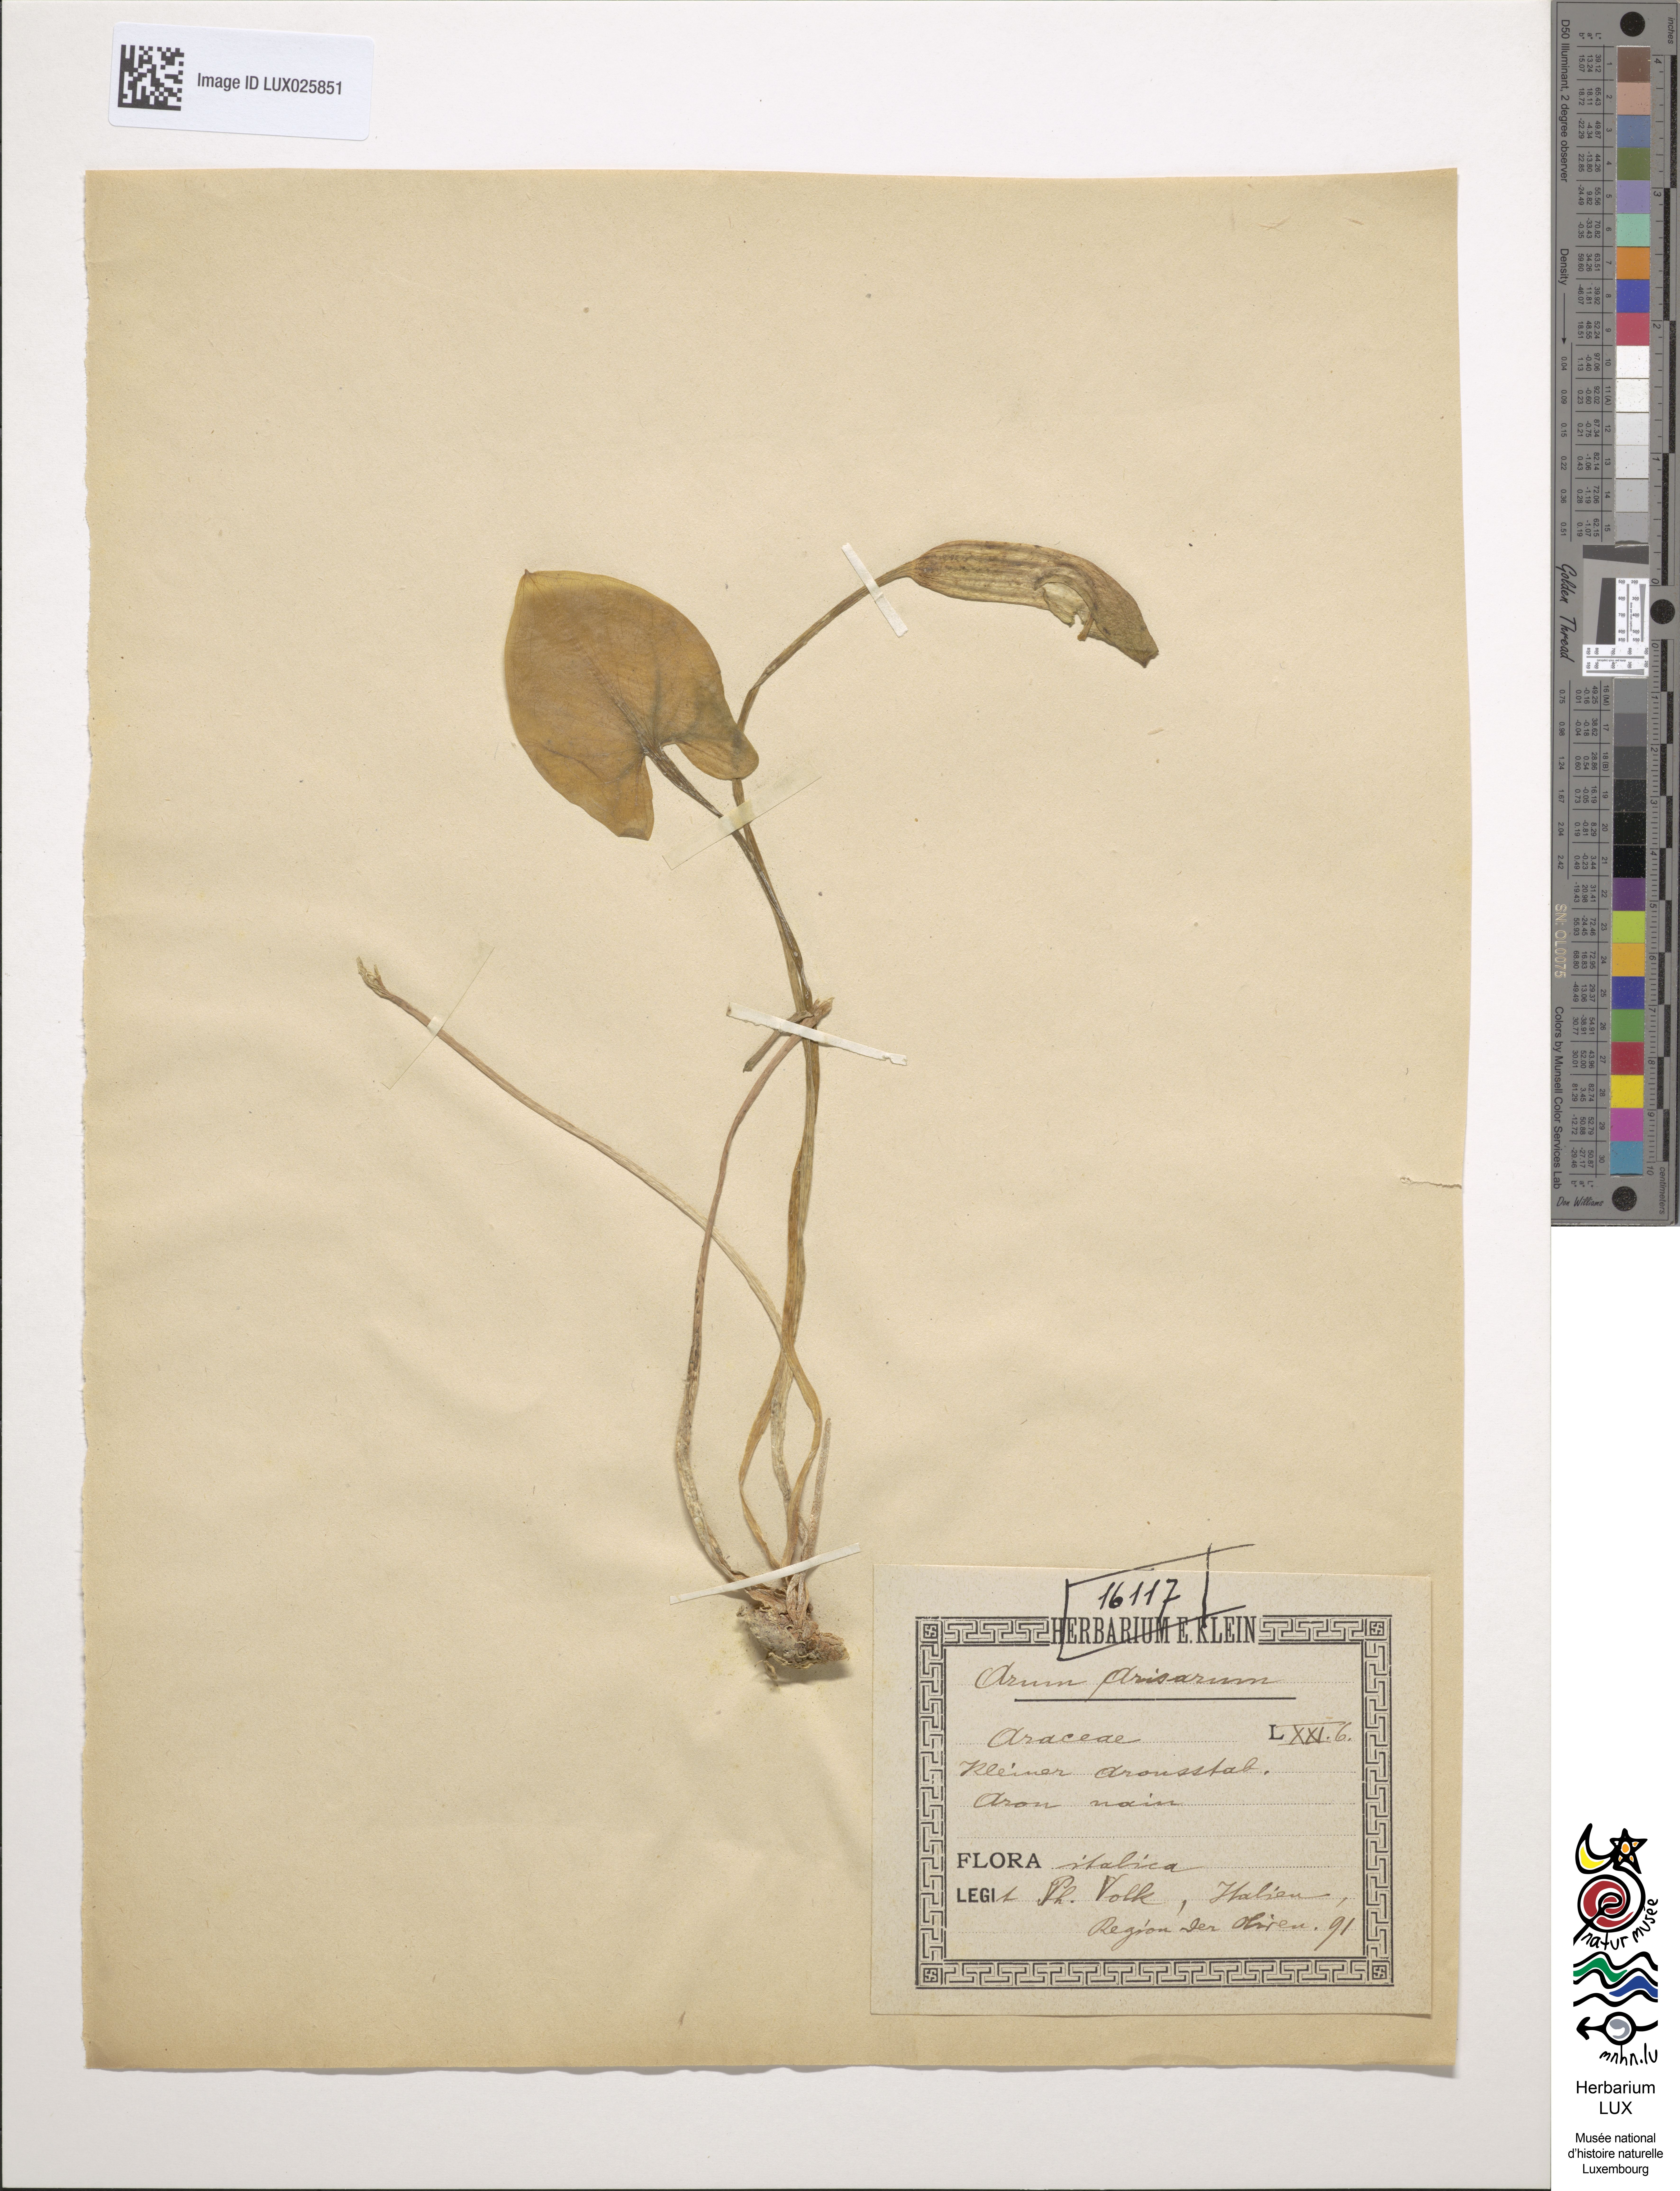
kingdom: Plantae
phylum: Tracheophyta
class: Liliopsida
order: Alismatales
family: Araceae
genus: Arisarum
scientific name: Arisarum vulgare
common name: Common arisarum
